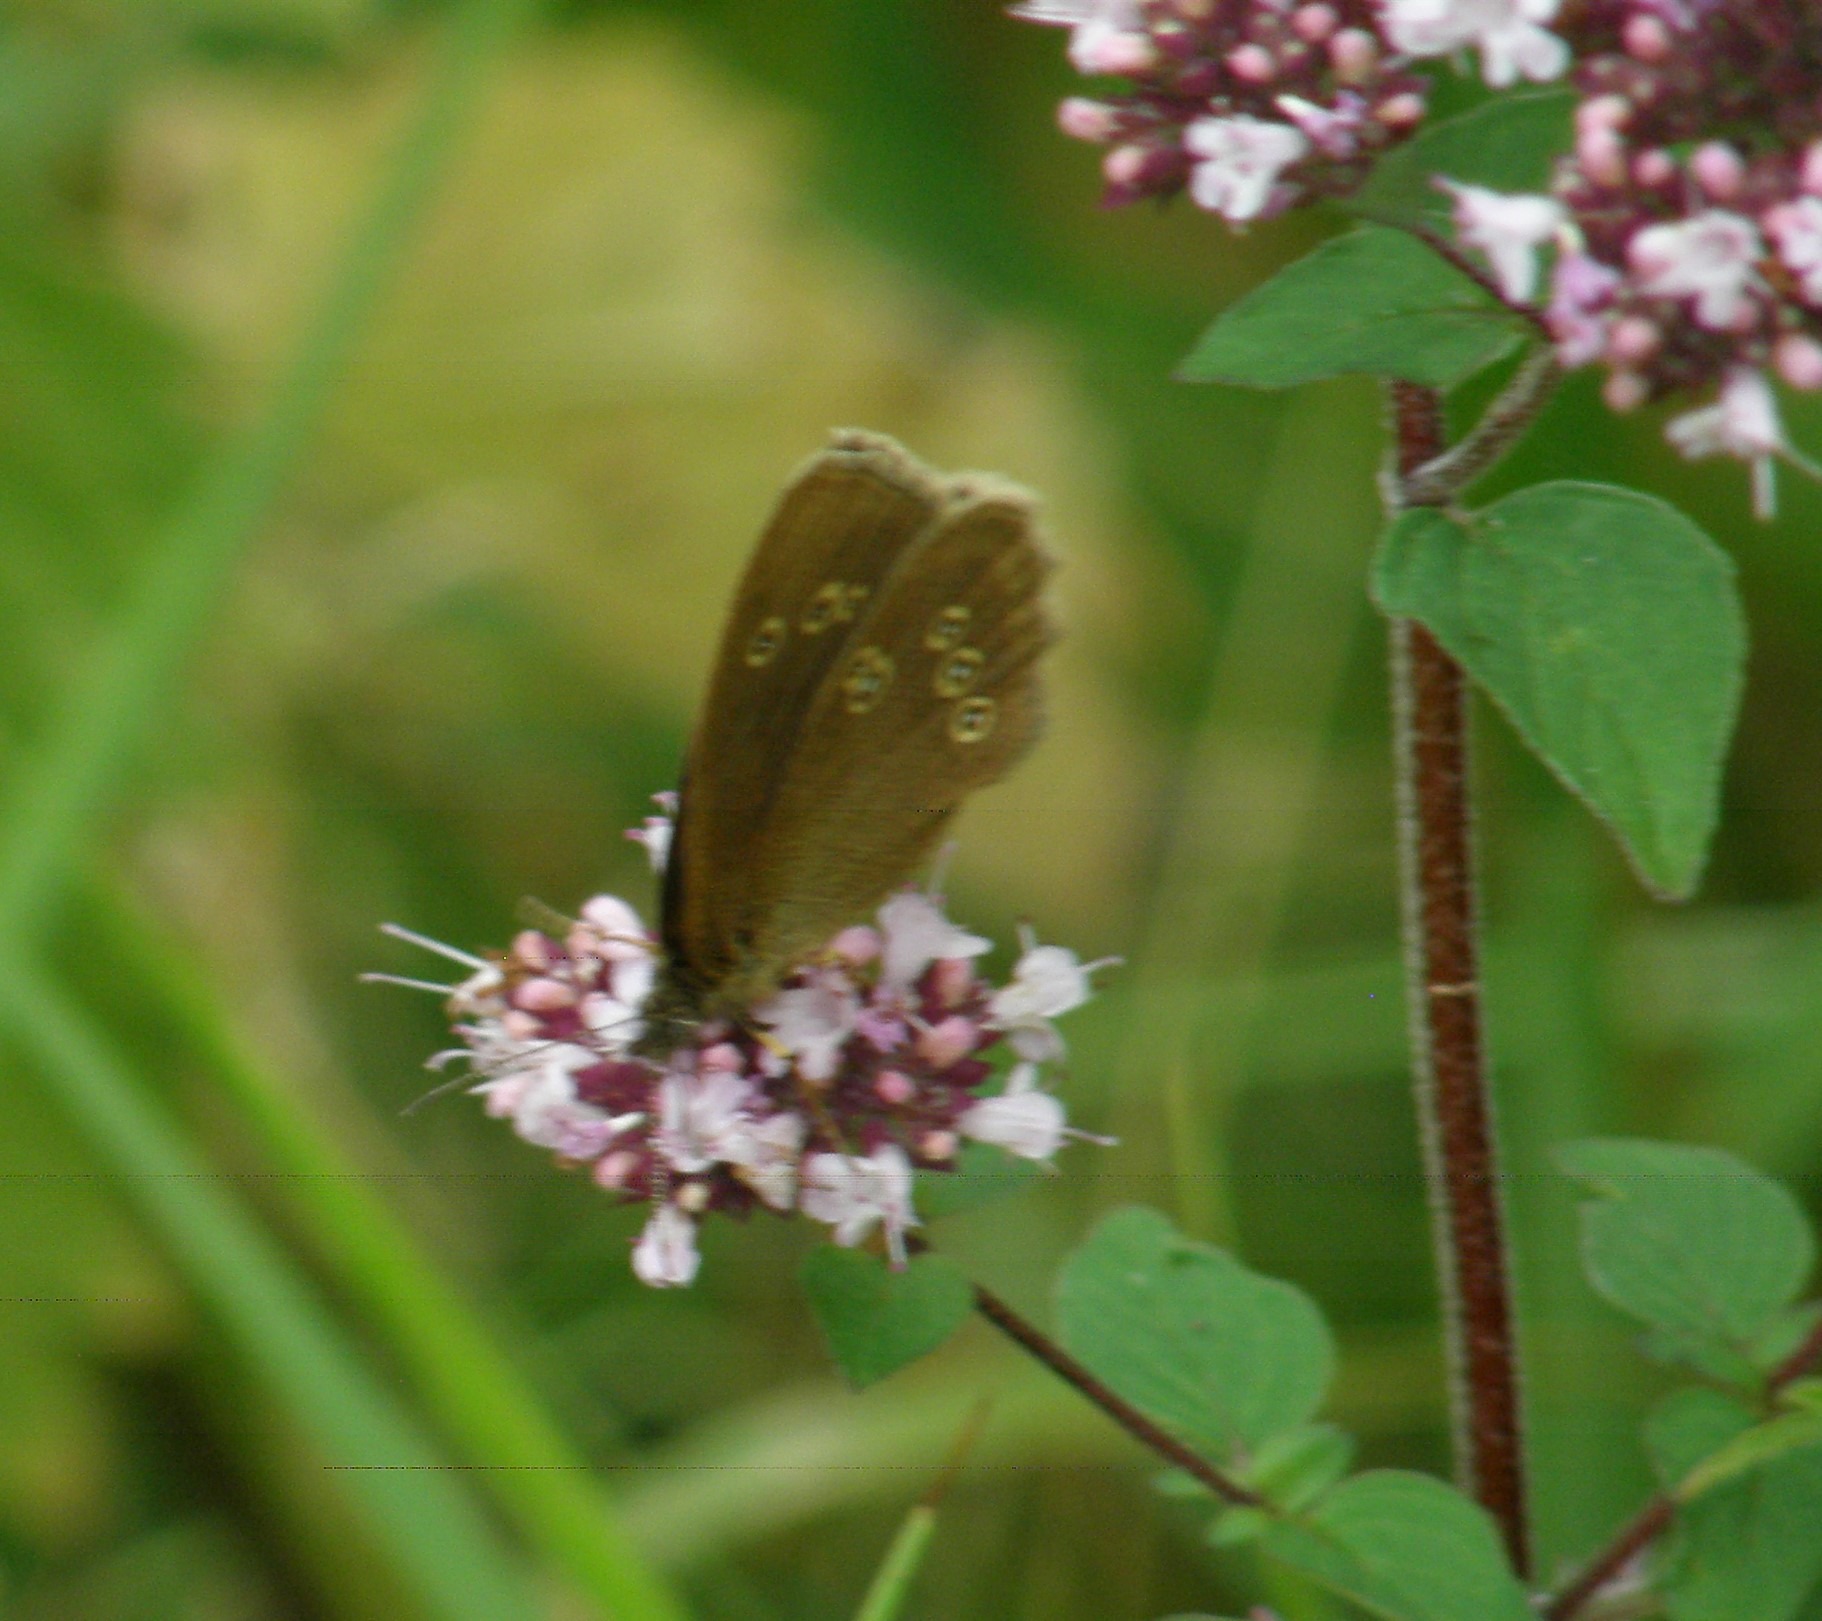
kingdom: Animalia
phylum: Arthropoda
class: Insecta
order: Lepidoptera
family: Nymphalidae
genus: Aphantopus
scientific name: Aphantopus hyperantus
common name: Engrandøje
